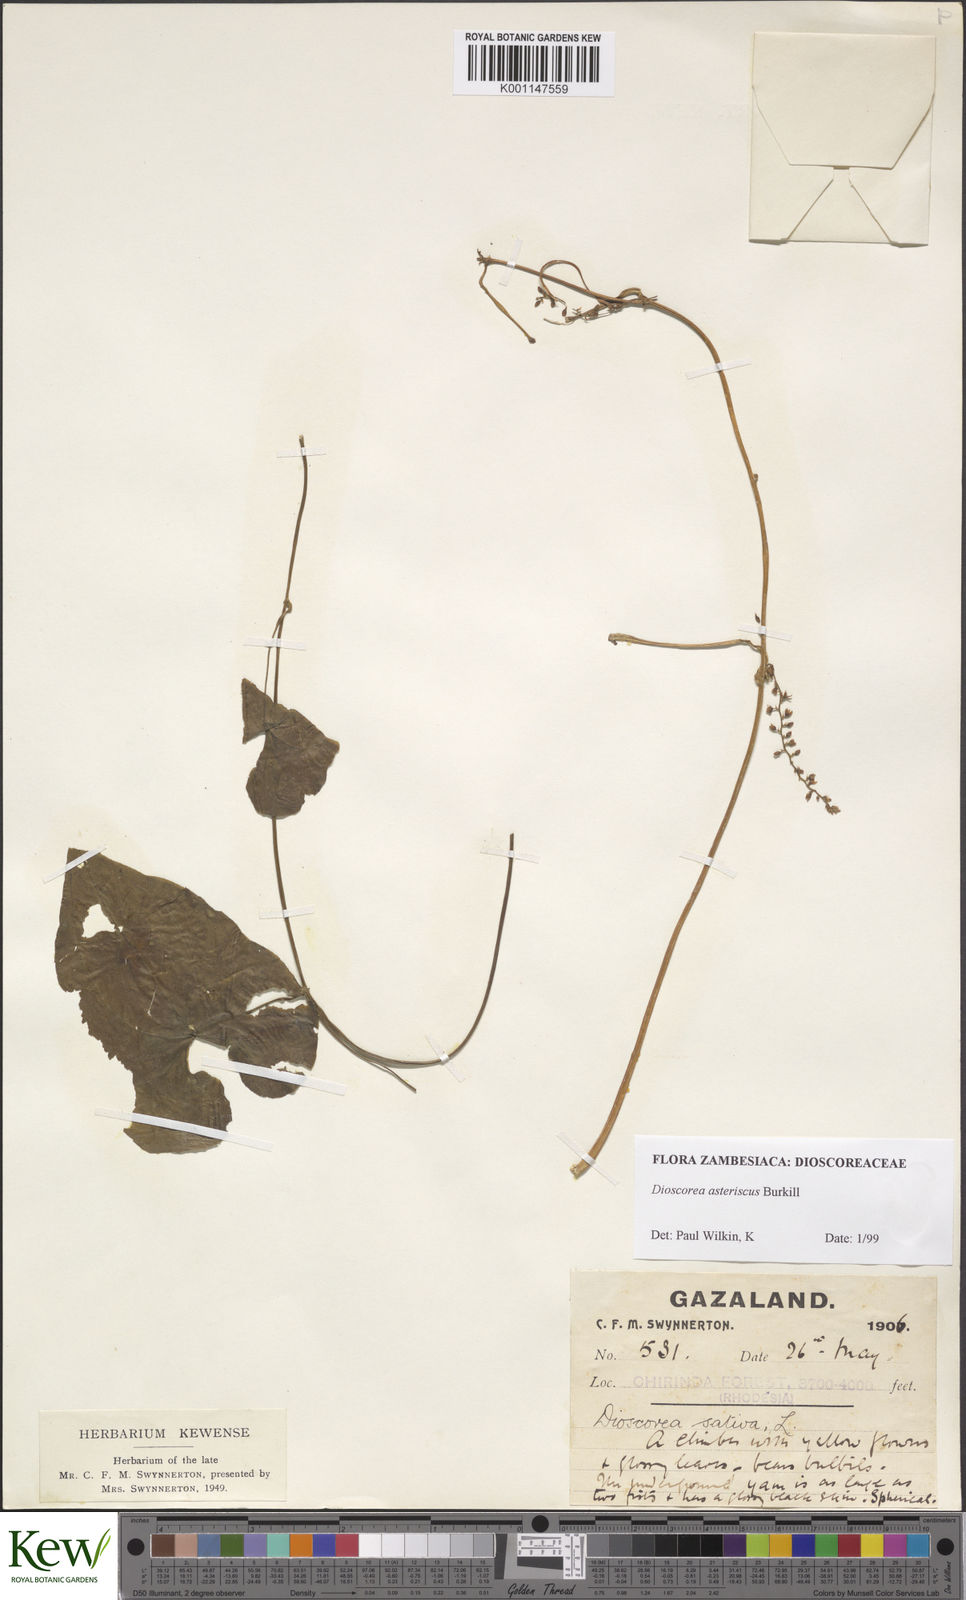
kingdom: Plantae
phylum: Tracheophyta
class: Liliopsida
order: Dioscoreales
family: Dioscoreaceae
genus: Dioscorea
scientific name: Dioscorea asteriscus
